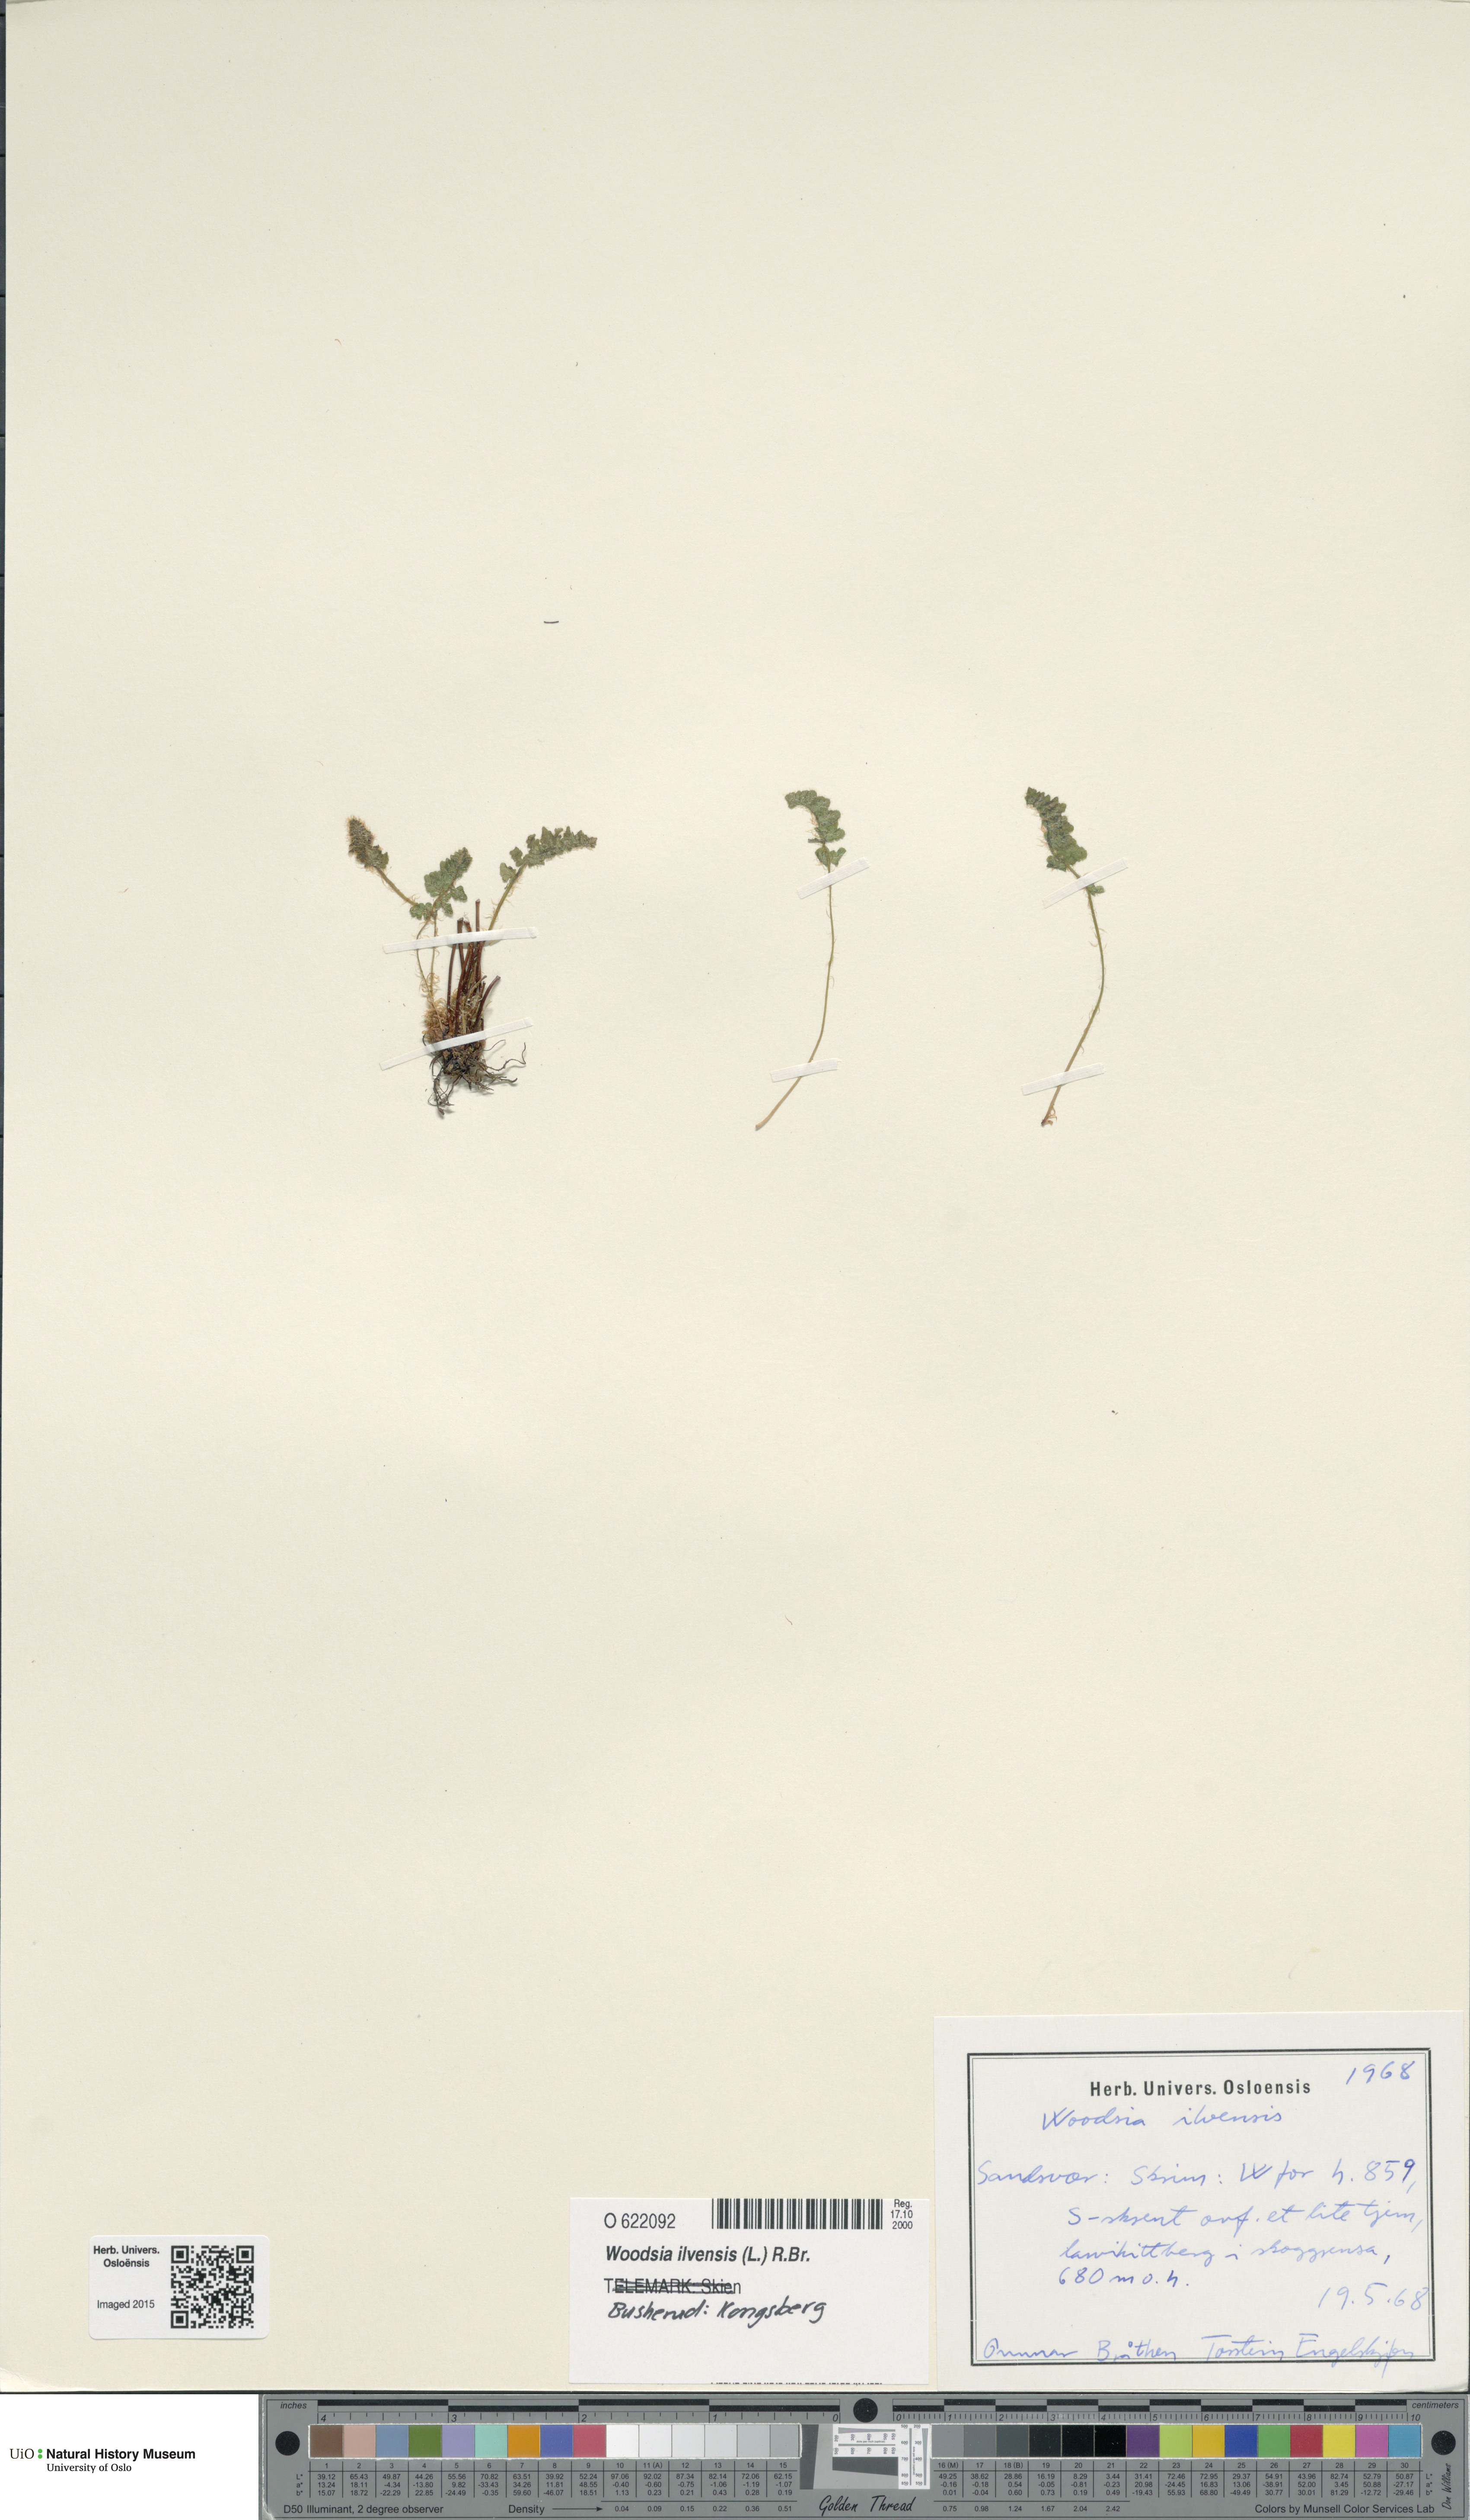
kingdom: Plantae
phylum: Tracheophyta
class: Polypodiopsida
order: Polypodiales
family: Woodsiaceae
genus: Woodsia
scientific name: Woodsia ilvensis
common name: Fragrant woodsia
